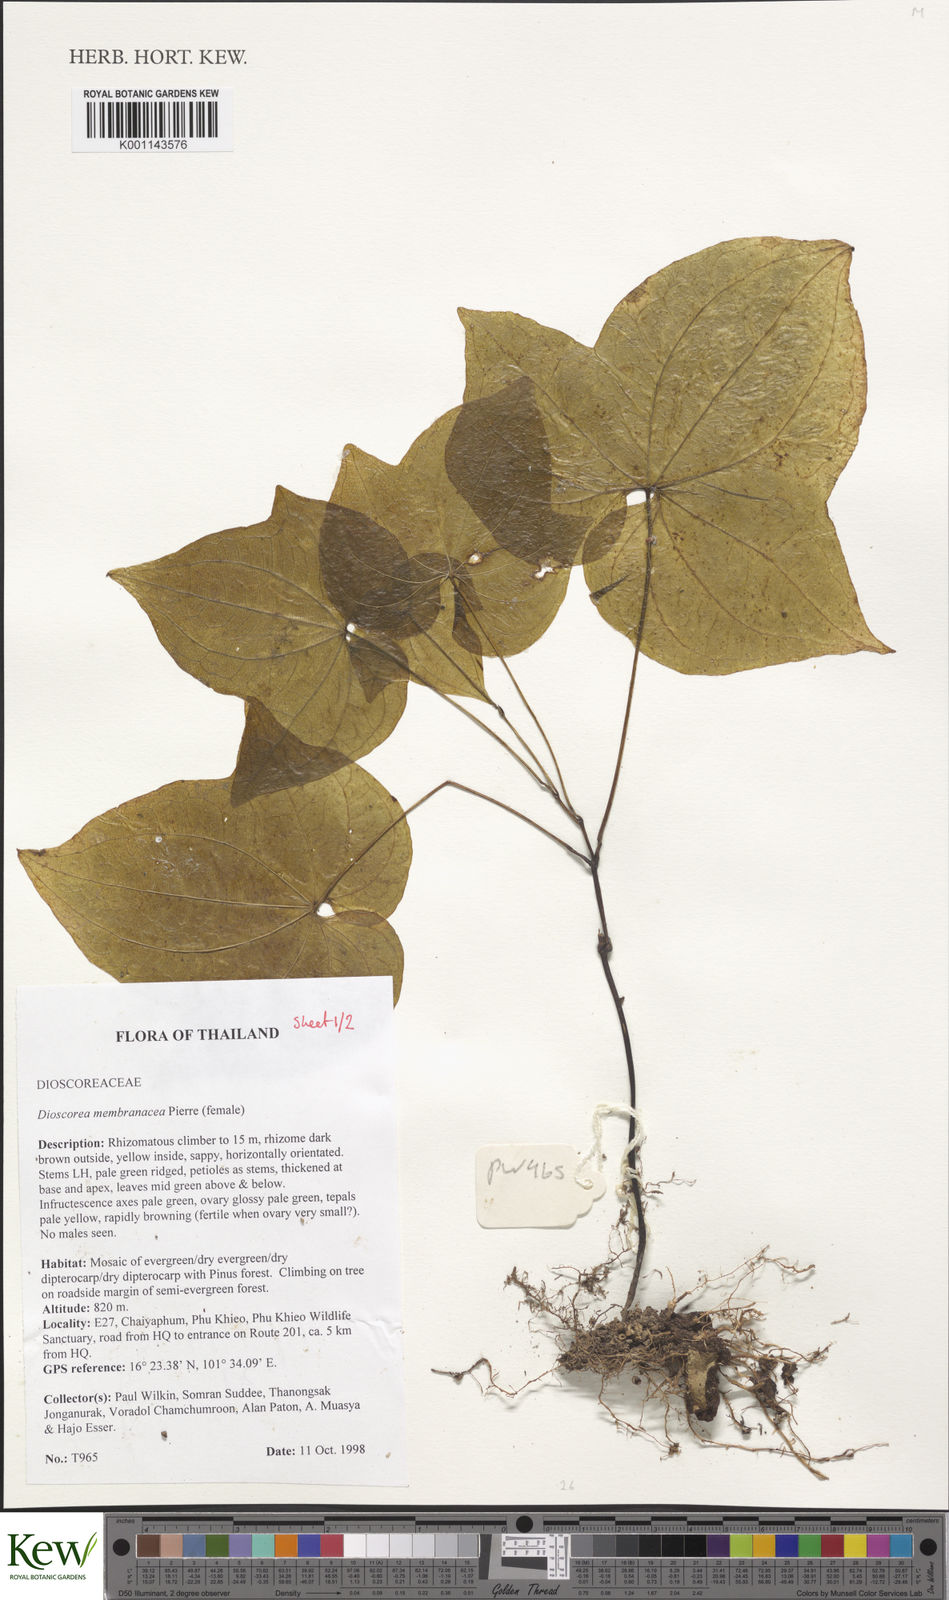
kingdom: Plantae
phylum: Tracheophyta
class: Liliopsida
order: Dioscoreales
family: Dioscoreaceae
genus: Dioscorea
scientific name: Dioscorea membranacea
